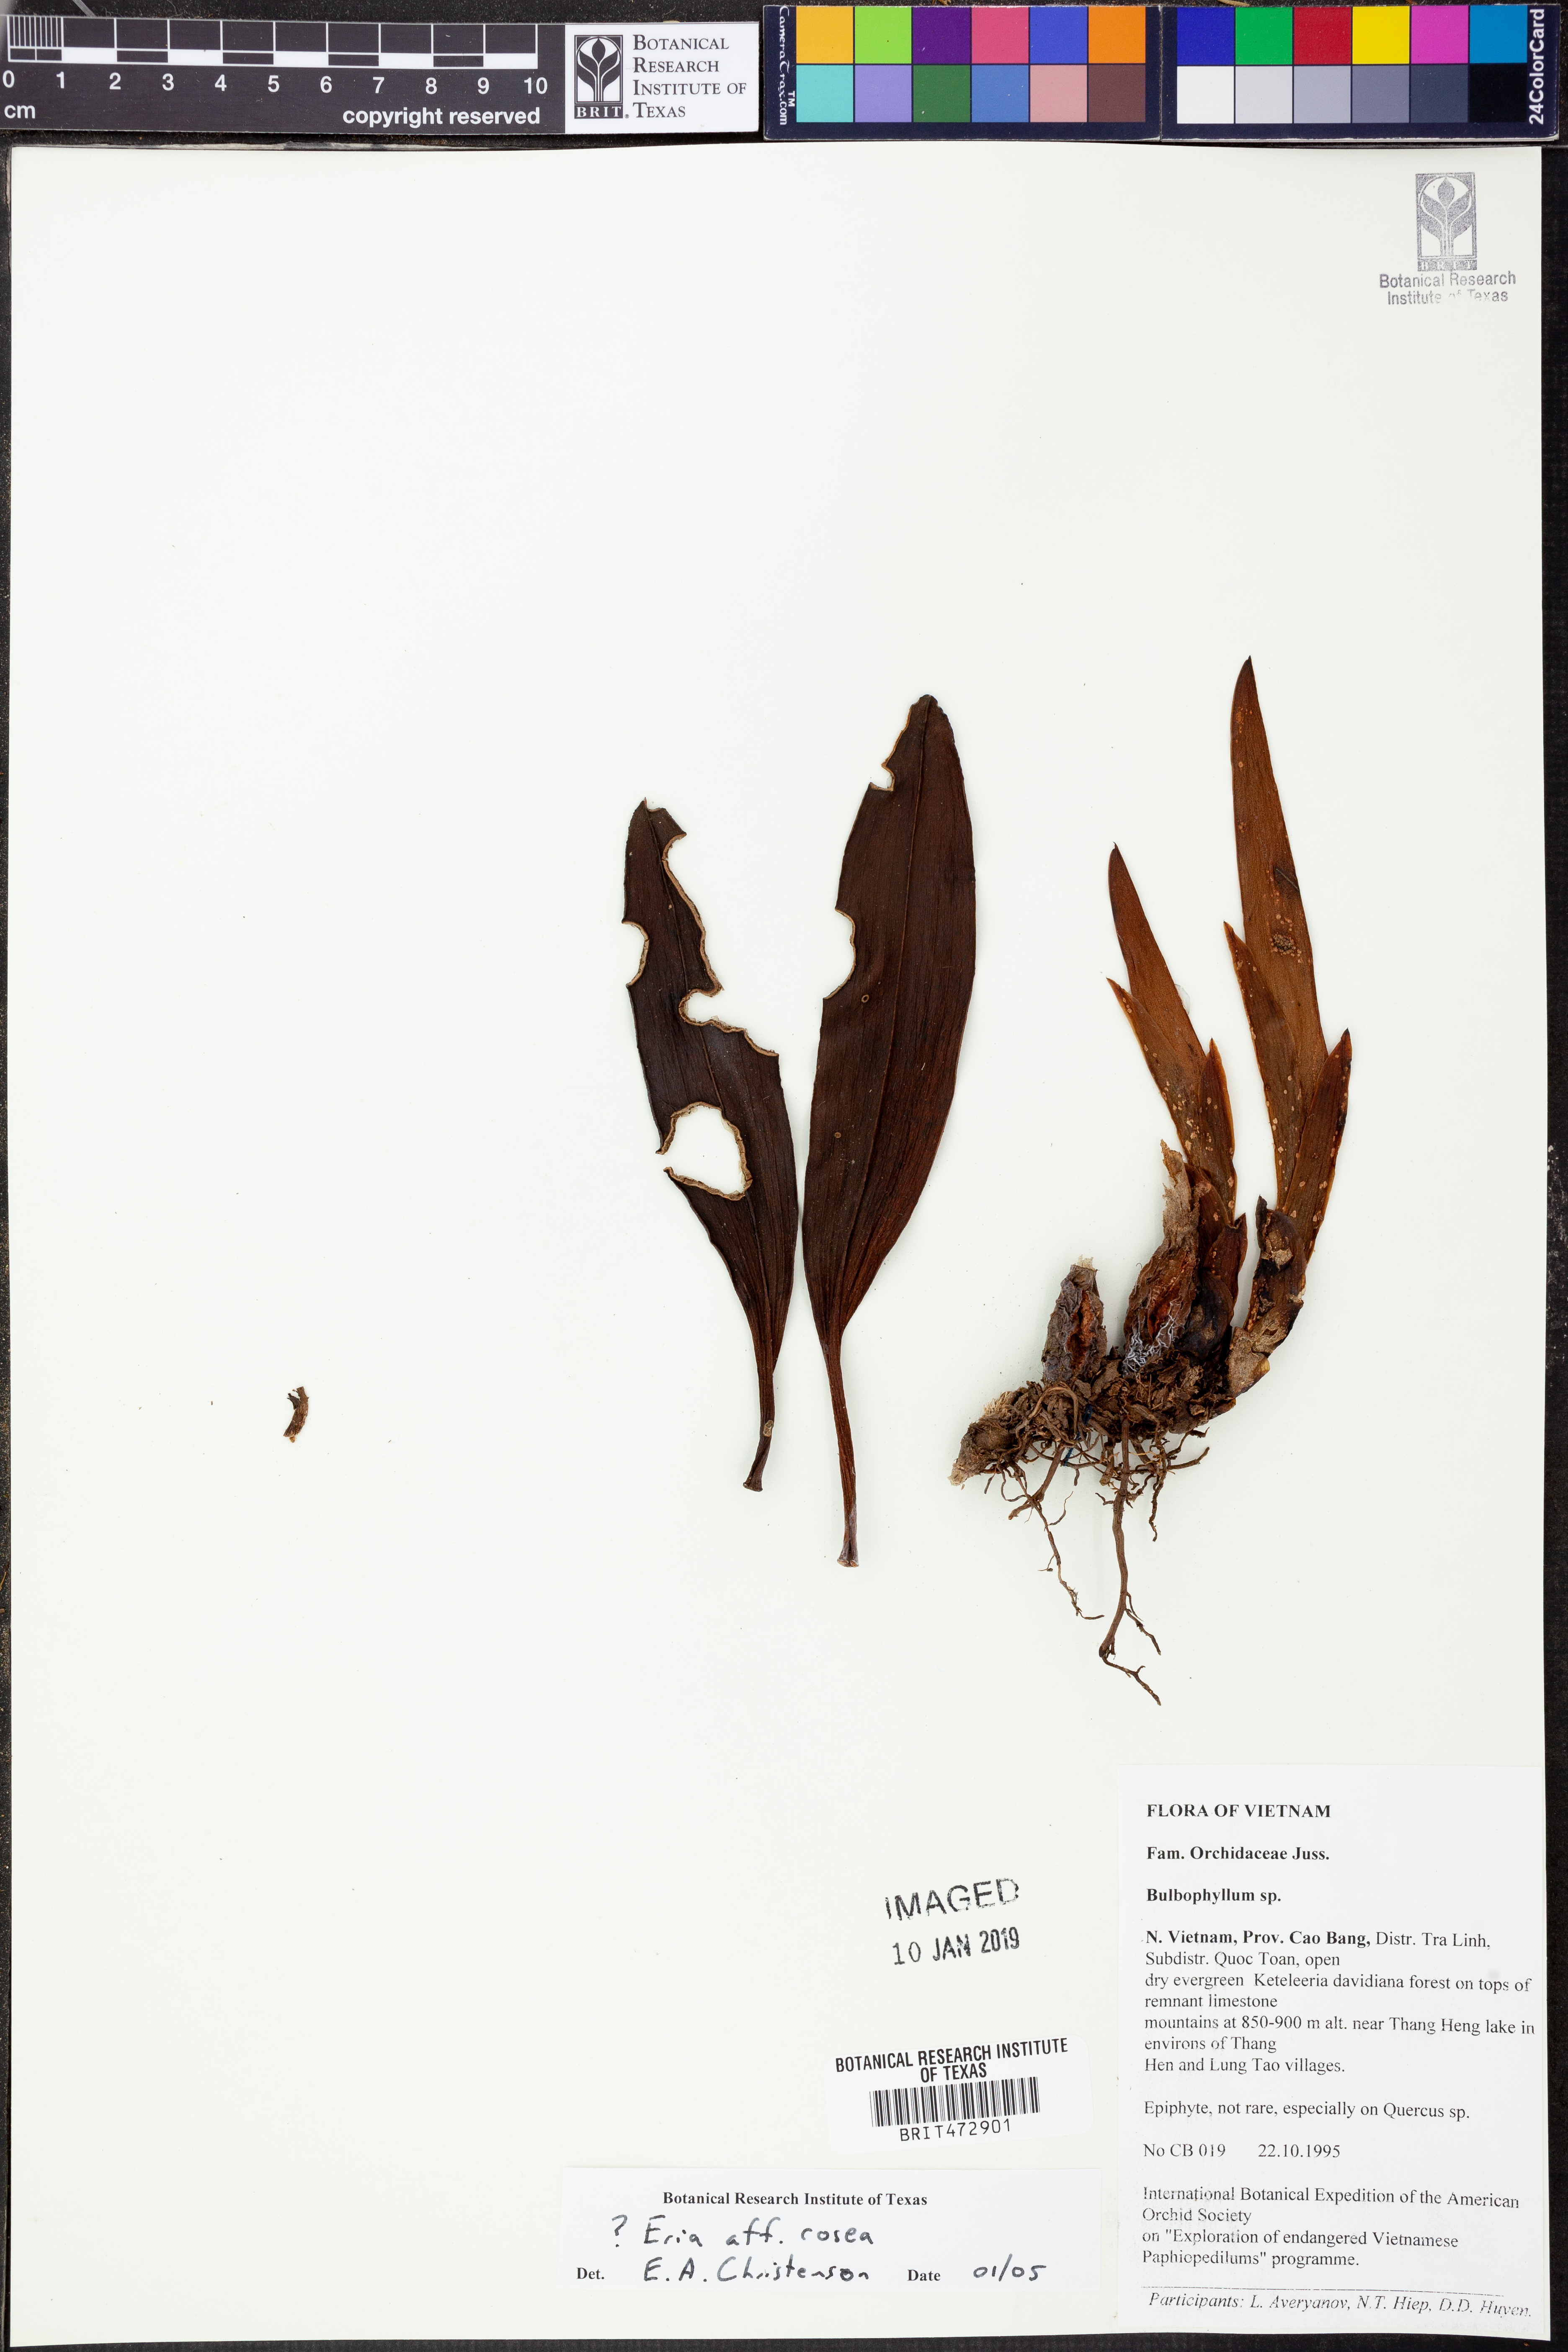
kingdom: Plantae
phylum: Tracheophyta
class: Liliopsida
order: Asparagales
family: Orchidaceae
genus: Cryptochilus
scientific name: Cryptochilus roseus
